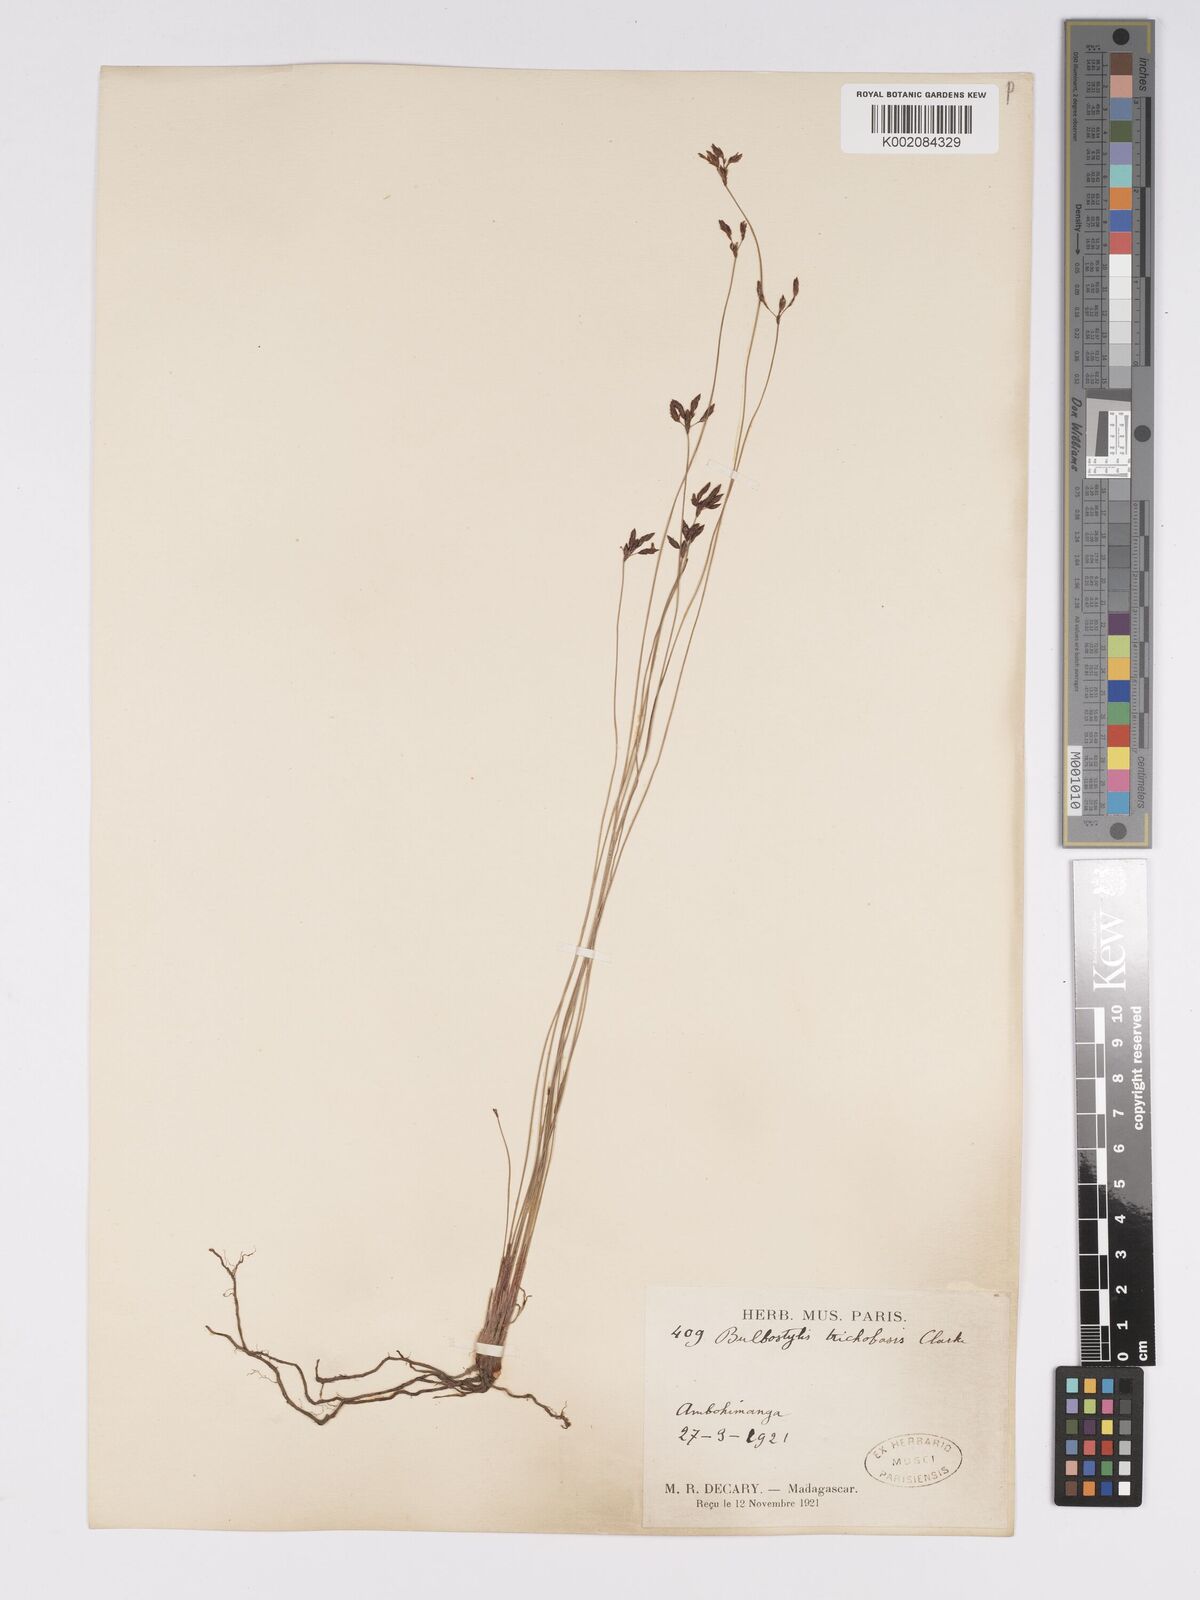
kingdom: Plantae
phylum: Tracheophyta
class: Liliopsida
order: Poales
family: Cyperaceae
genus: Bulbostylis
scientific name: Bulbostylis trichobasis
